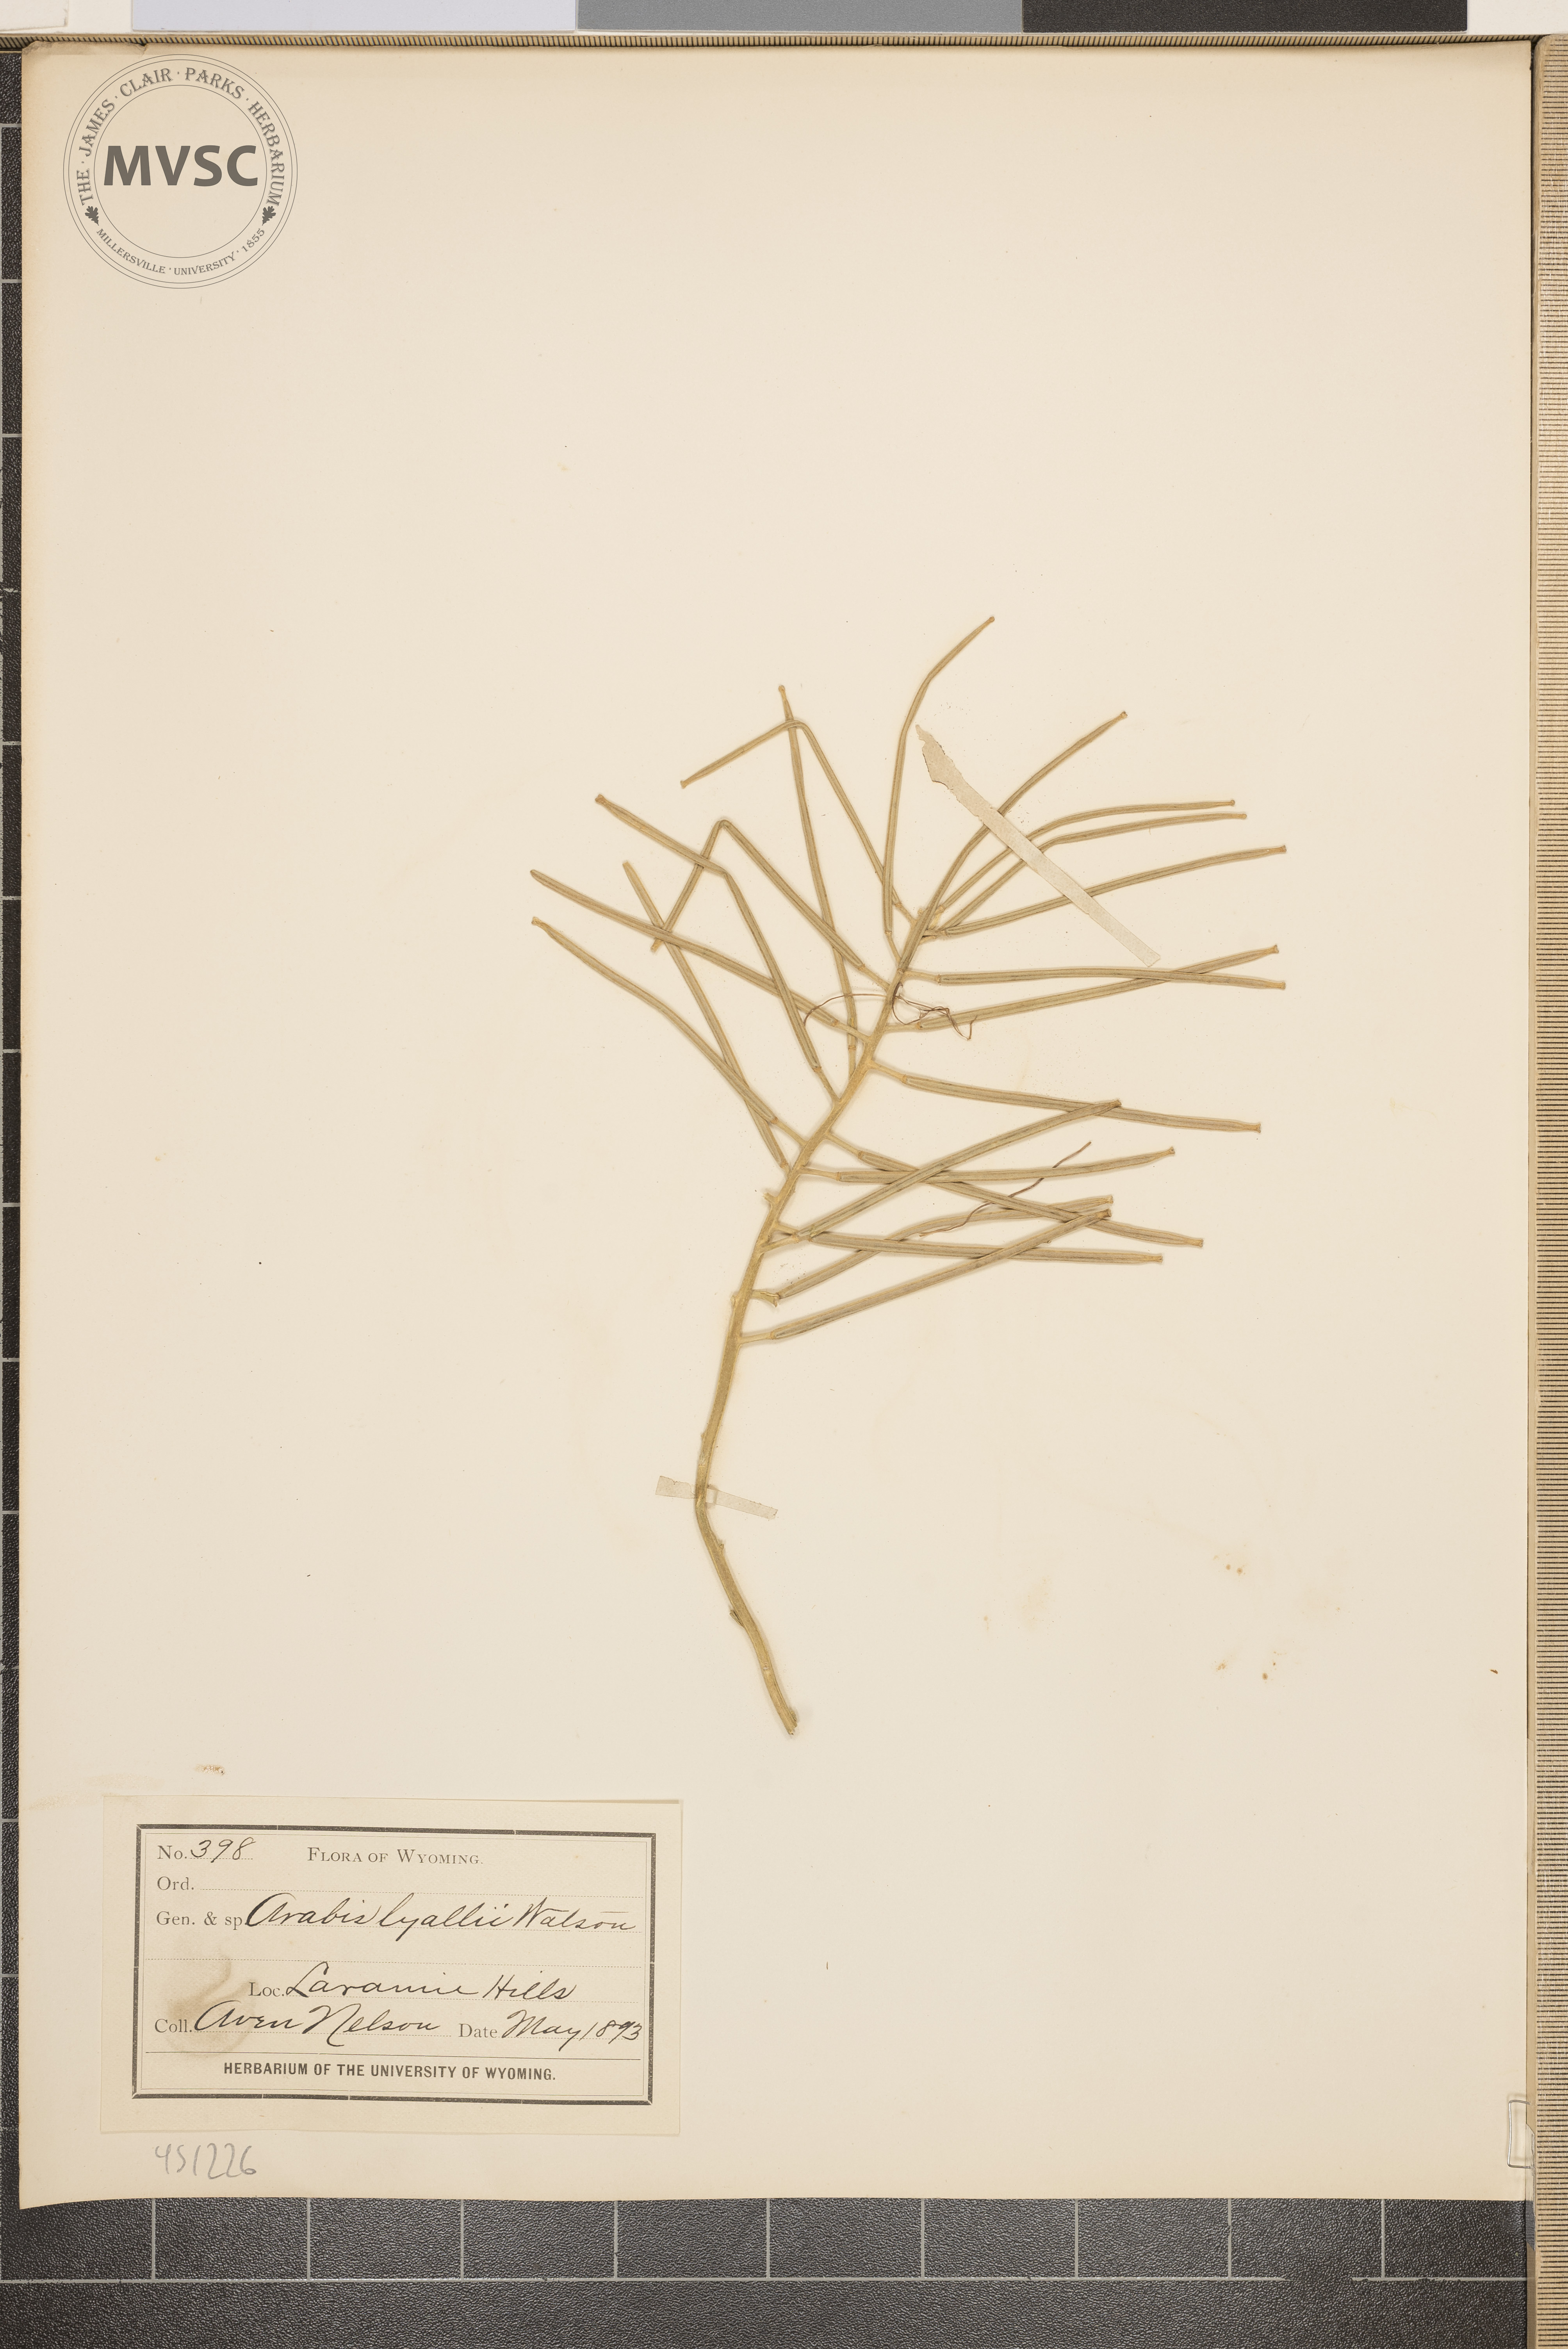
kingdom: Plantae
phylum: Tracheophyta
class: Magnoliopsida
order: Brassicales
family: Brassicaceae
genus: Boechera
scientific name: Boechera lyallii
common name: Lyall's rockcress
